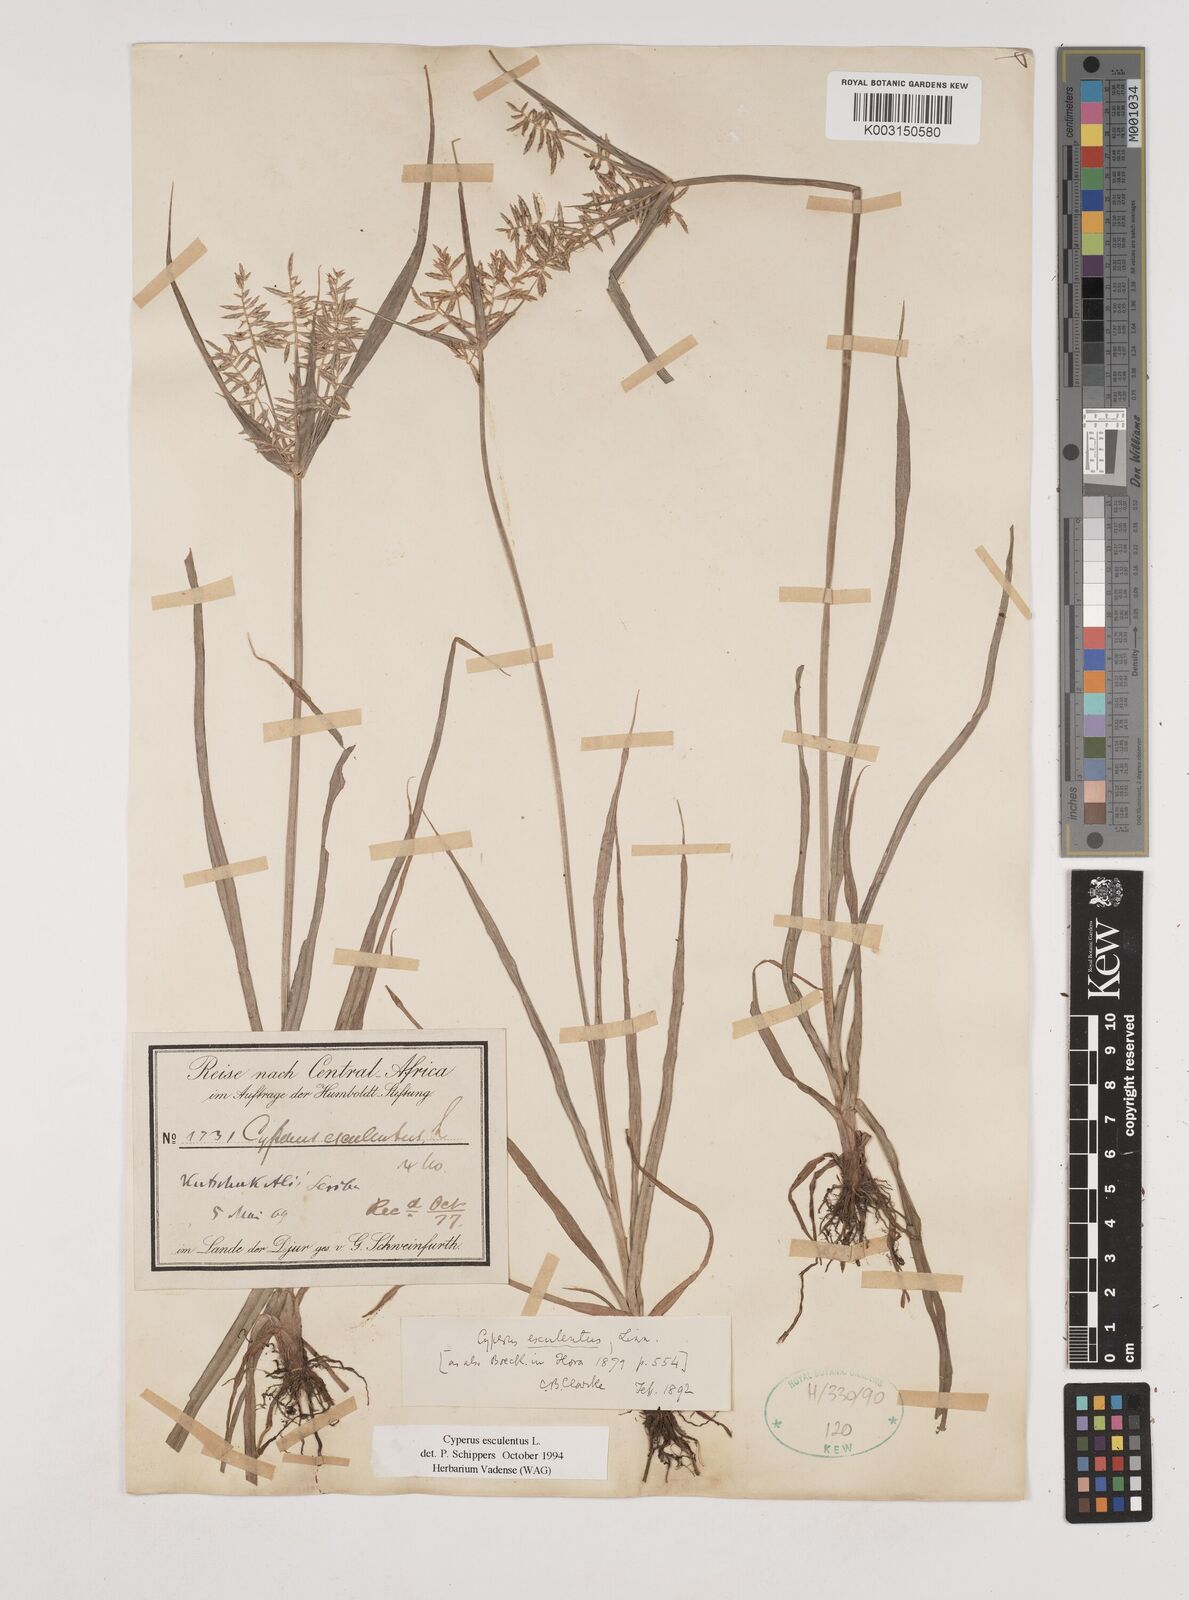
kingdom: Plantae
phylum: Tracheophyta
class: Liliopsida
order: Poales
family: Cyperaceae
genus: Cyperus
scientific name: Cyperus esculentus
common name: Yellow nutsedge
